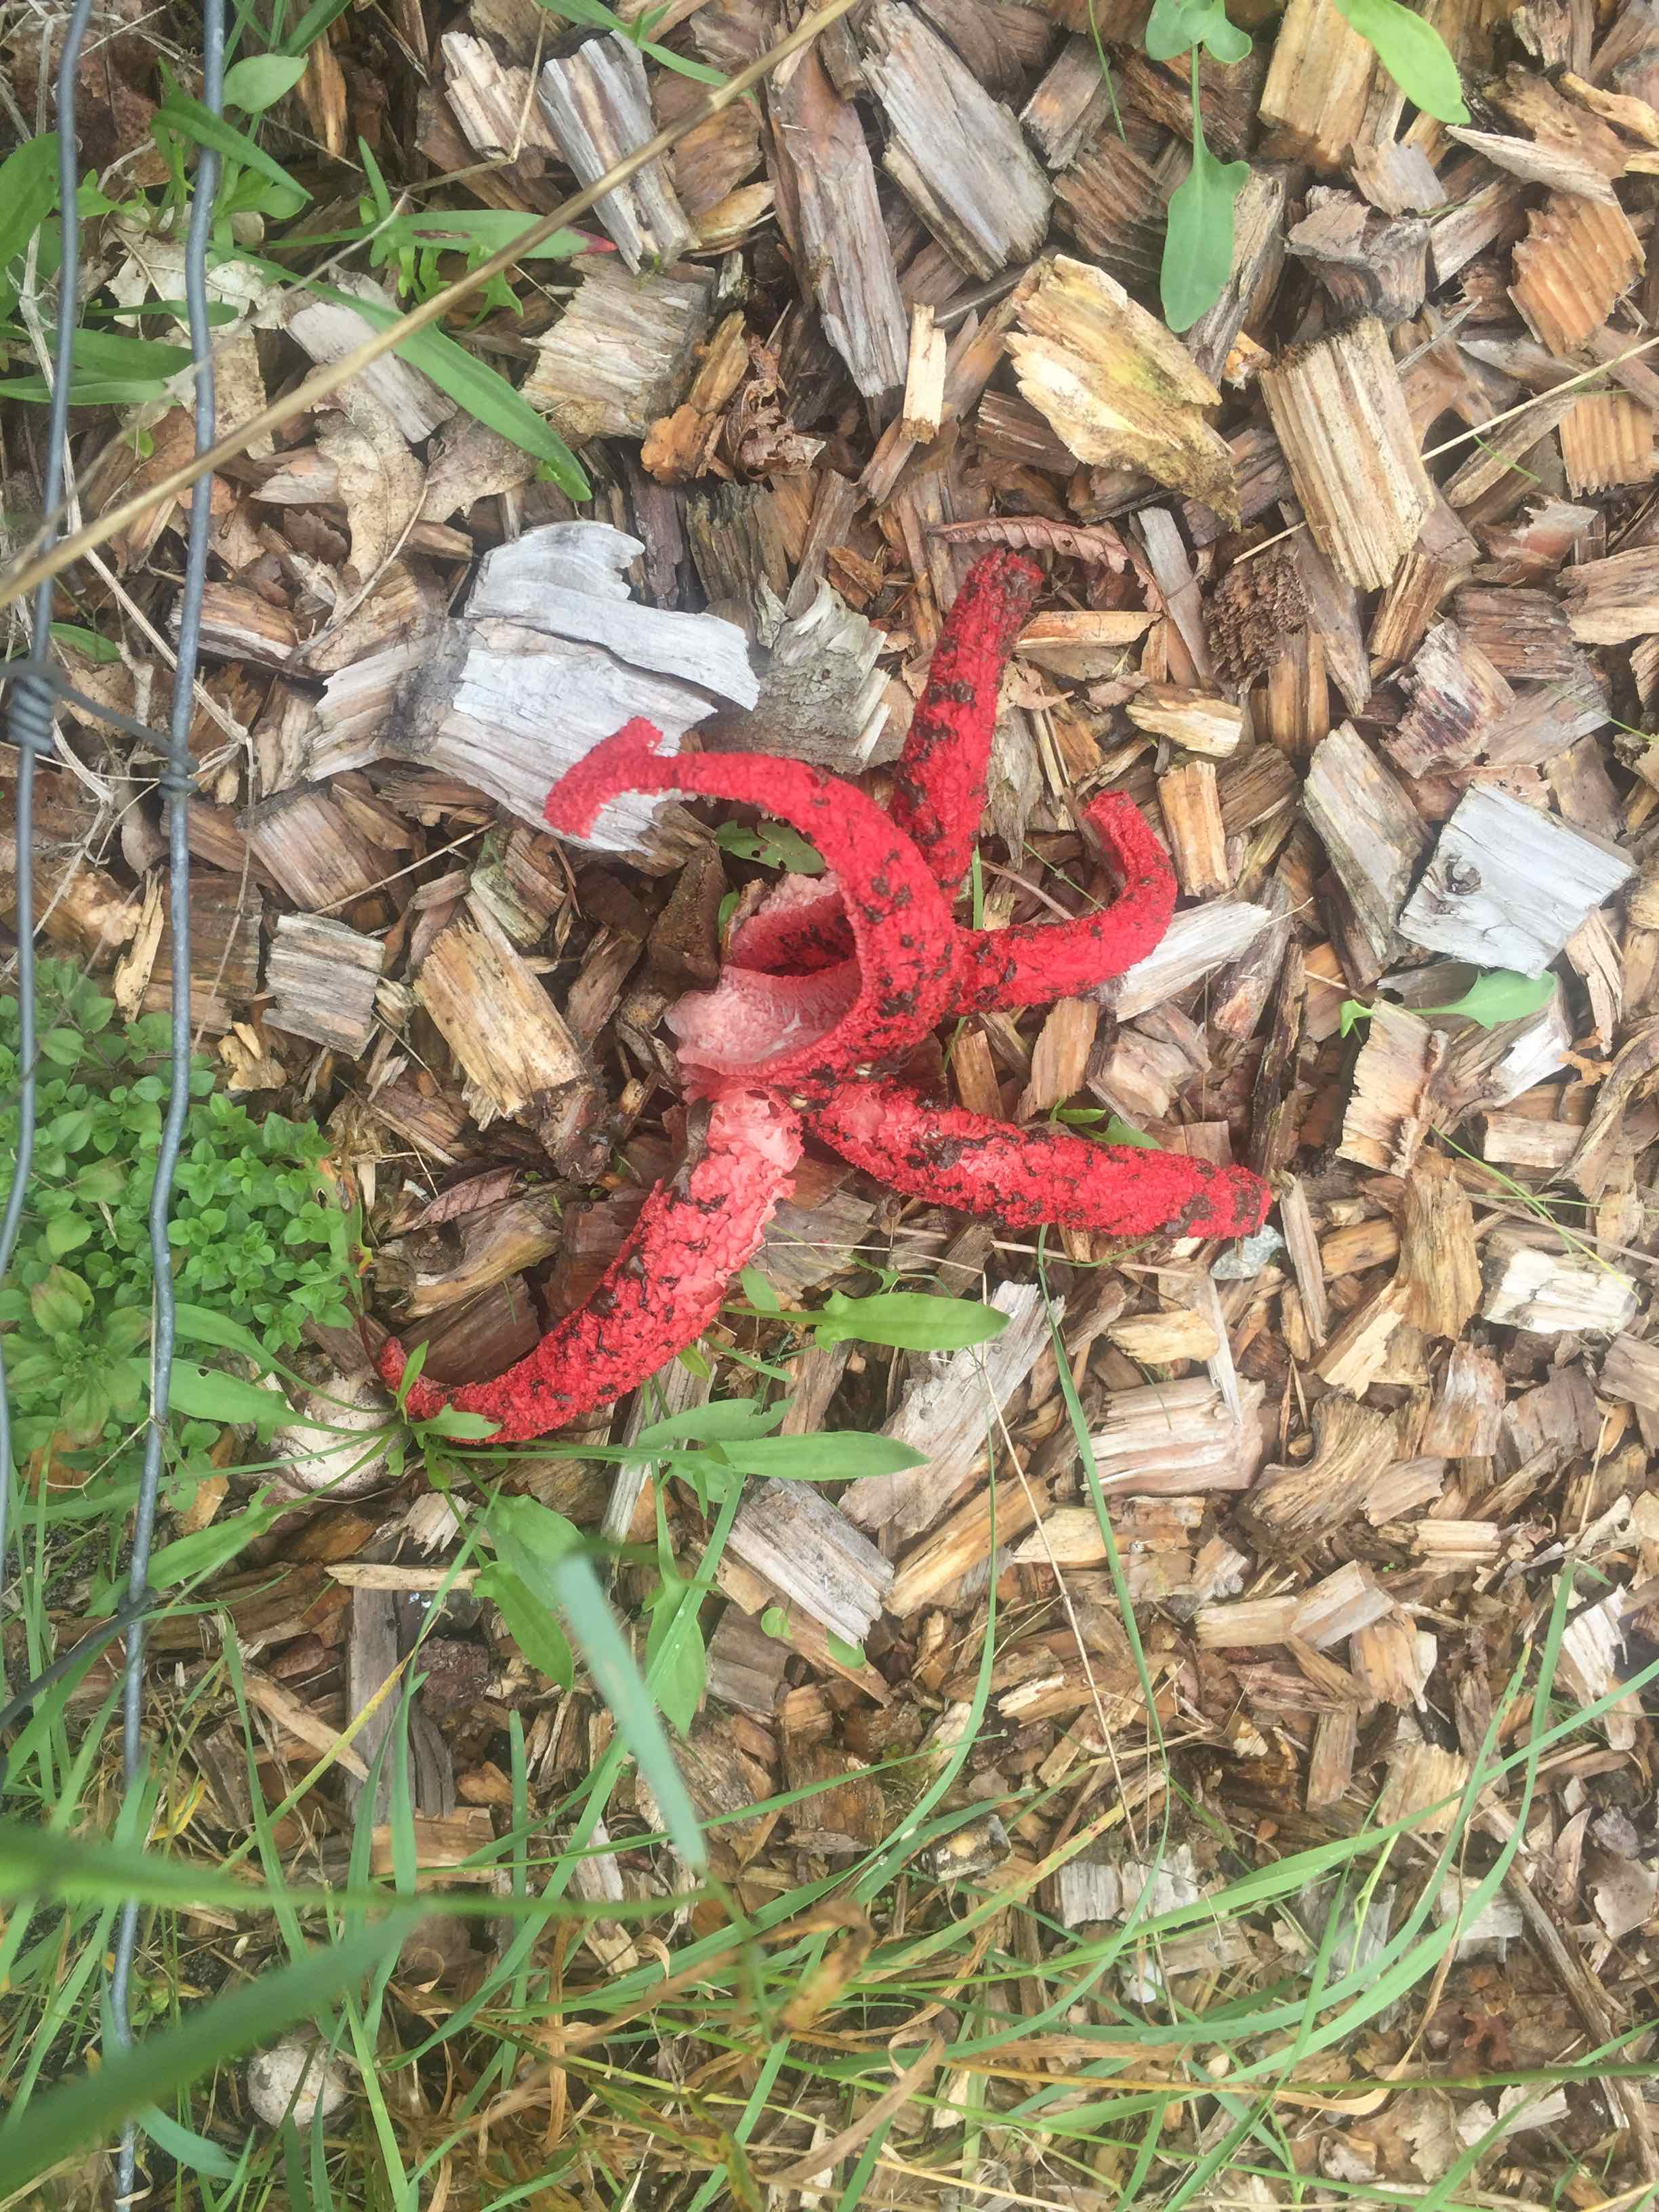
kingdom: Fungi
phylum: Basidiomycota
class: Agaricomycetes
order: Phallales
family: Phallaceae
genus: Clathrus
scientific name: Clathrus archeri
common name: blækspruttesvamp
